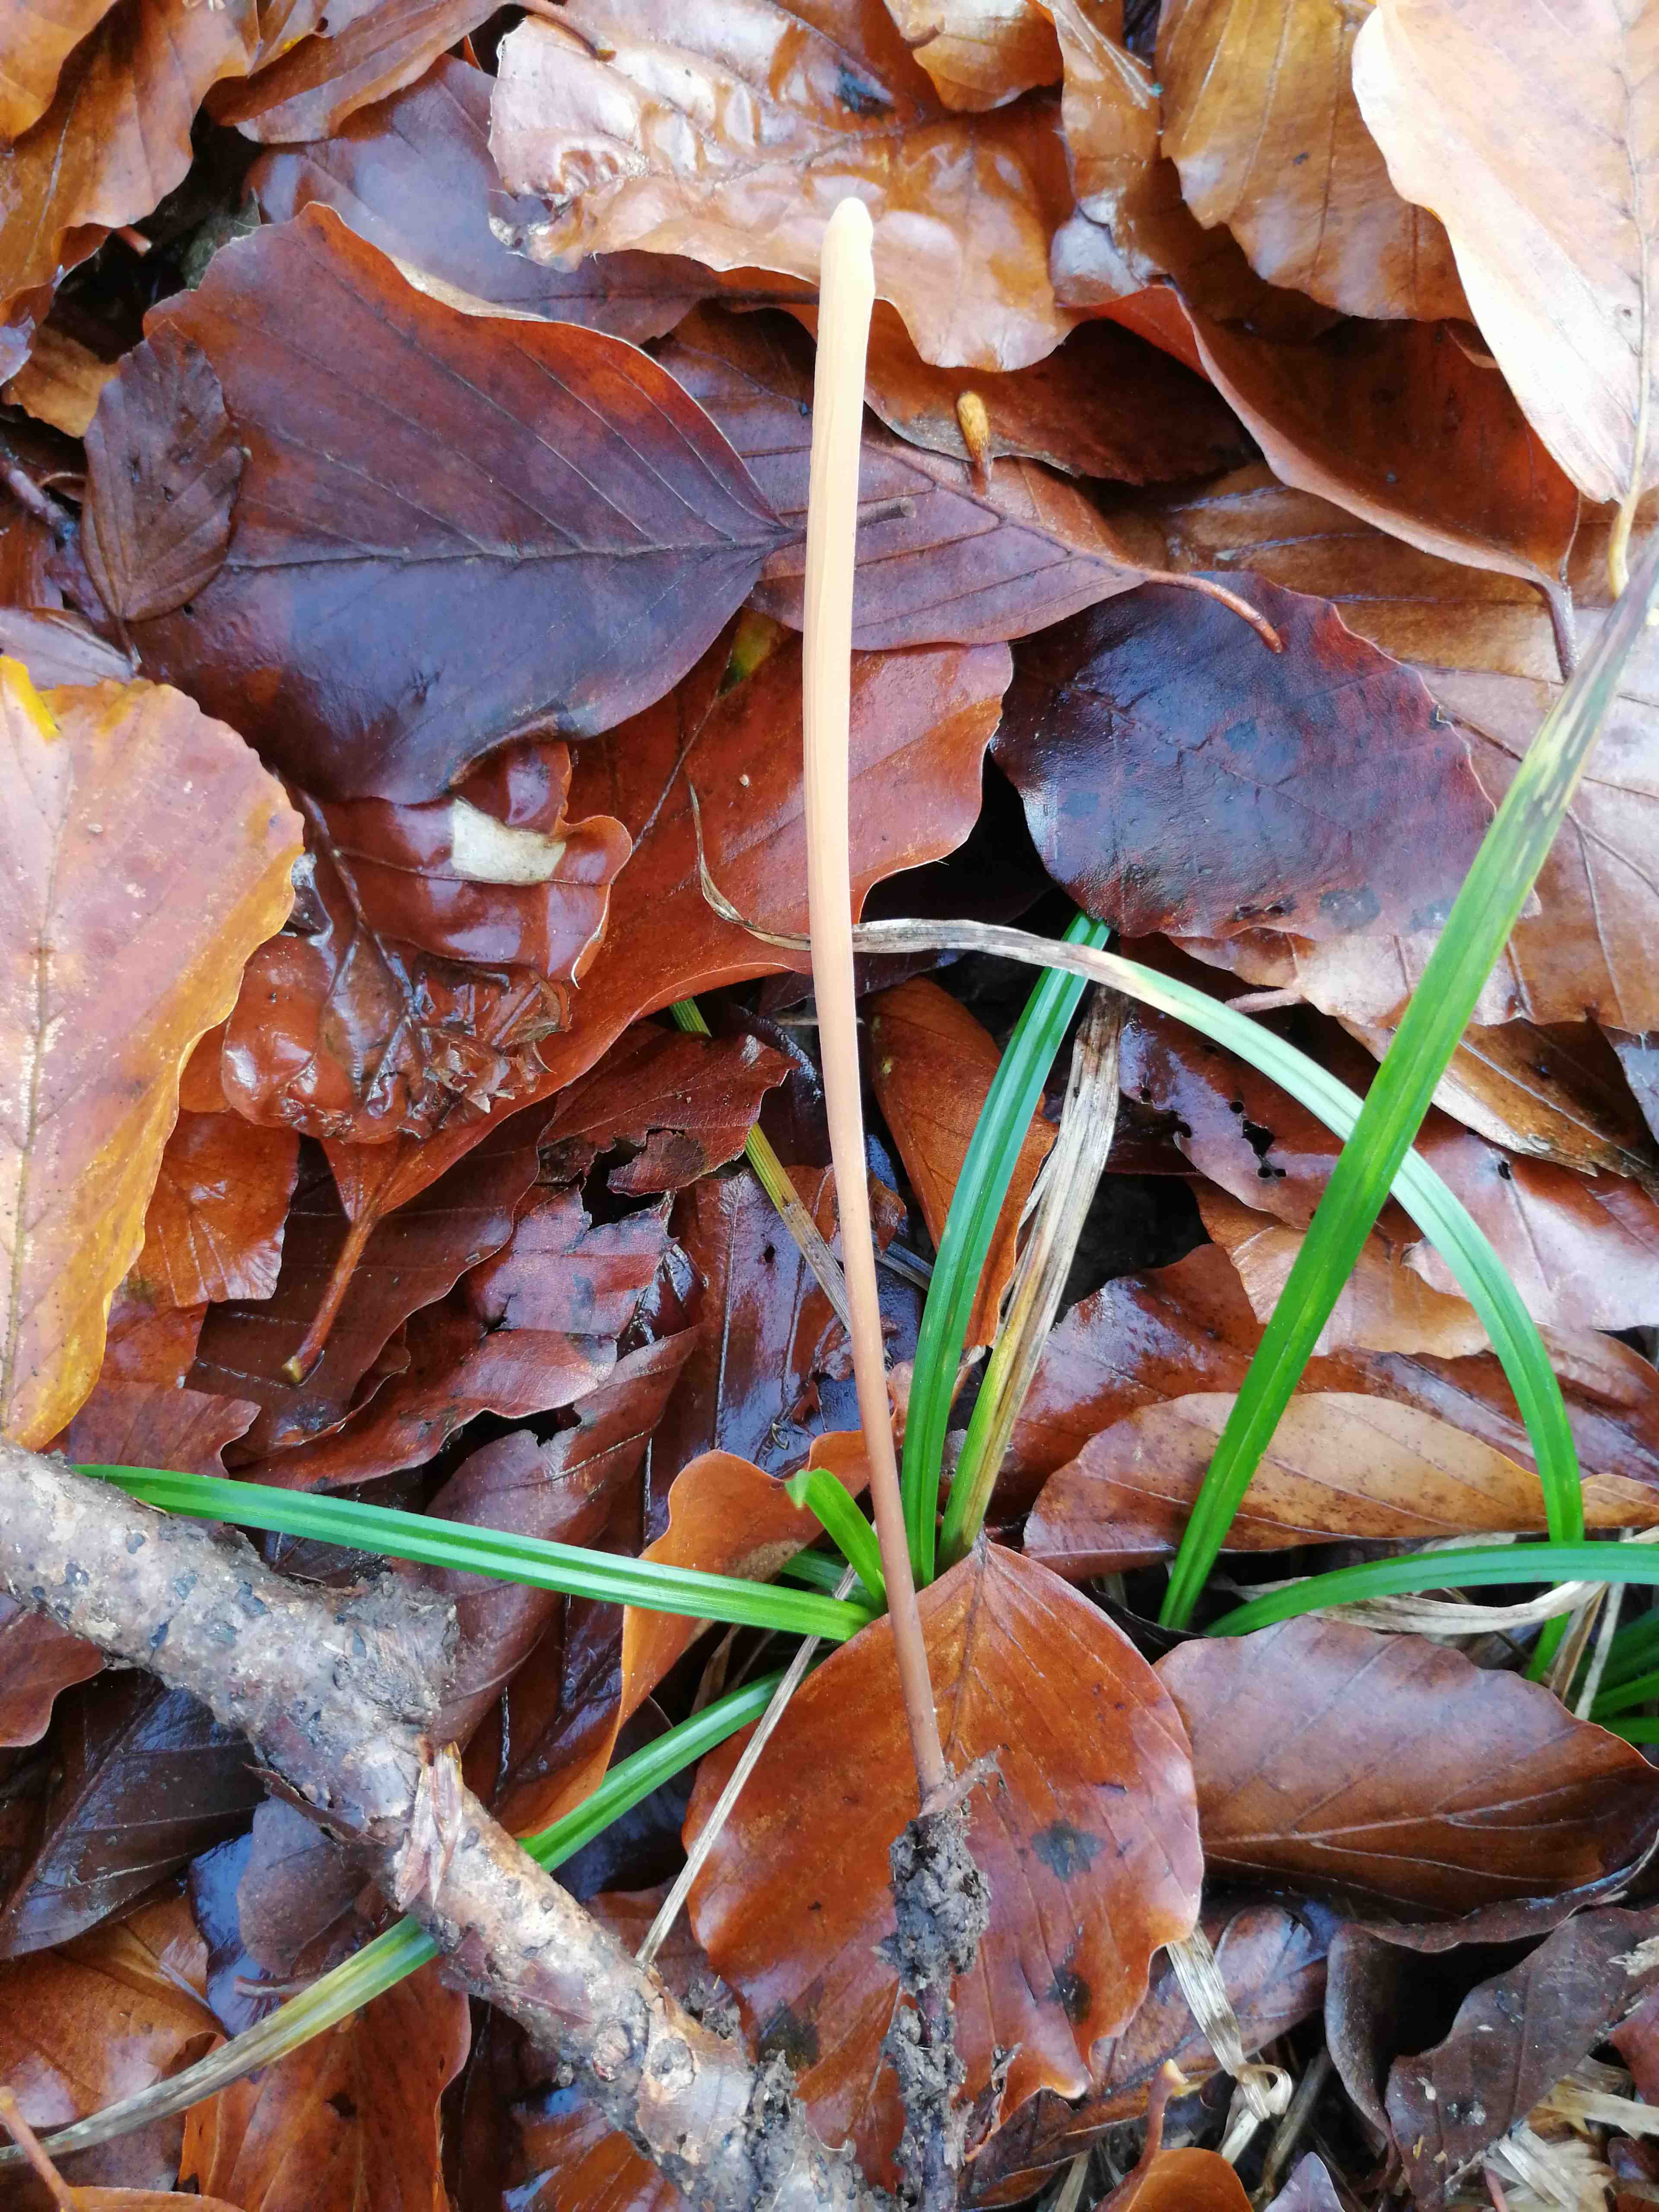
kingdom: Fungi
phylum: Basidiomycota
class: Agaricomycetes
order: Agaricales
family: Typhulaceae
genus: Typhula
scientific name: Typhula fistulosa
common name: pibet rørkølle
